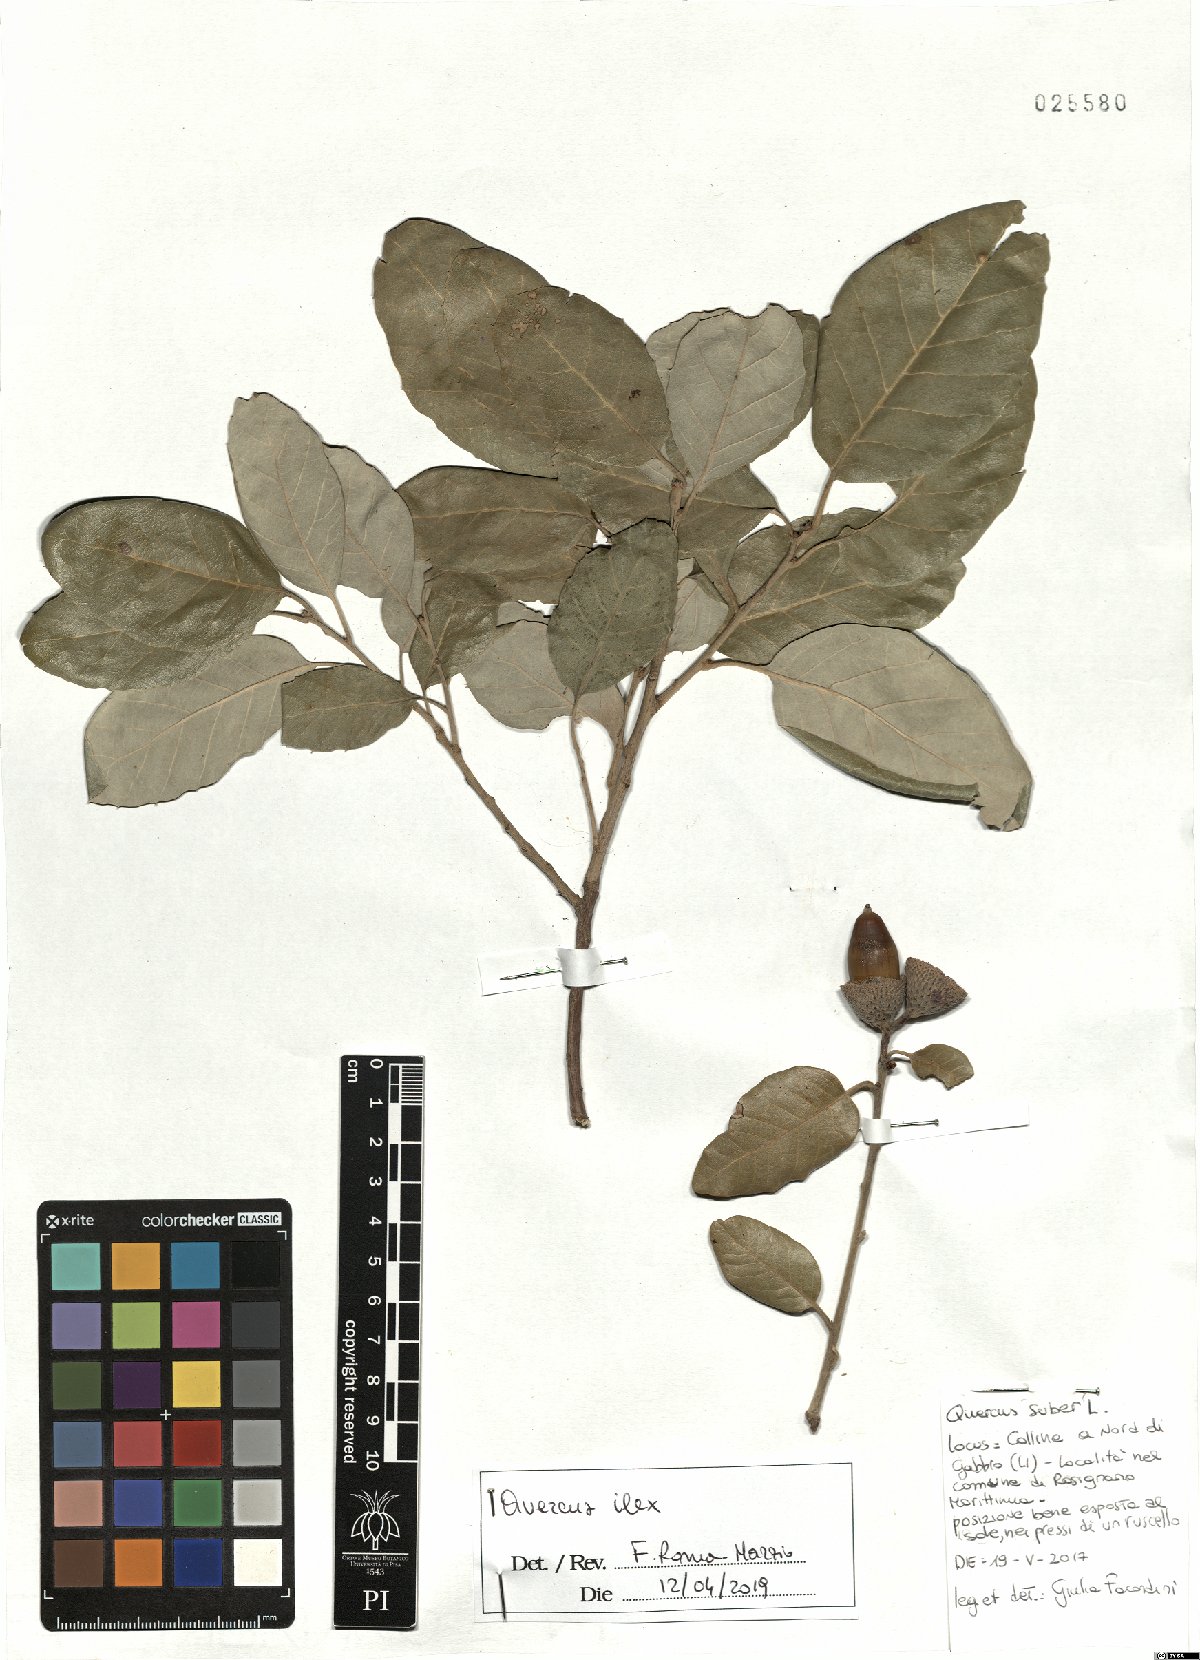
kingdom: Plantae
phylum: Tracheophyta
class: Magnoliopsida
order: Fagales
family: Fagaceae
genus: Quercus
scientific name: Quercus ilex
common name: Evergreen oak
